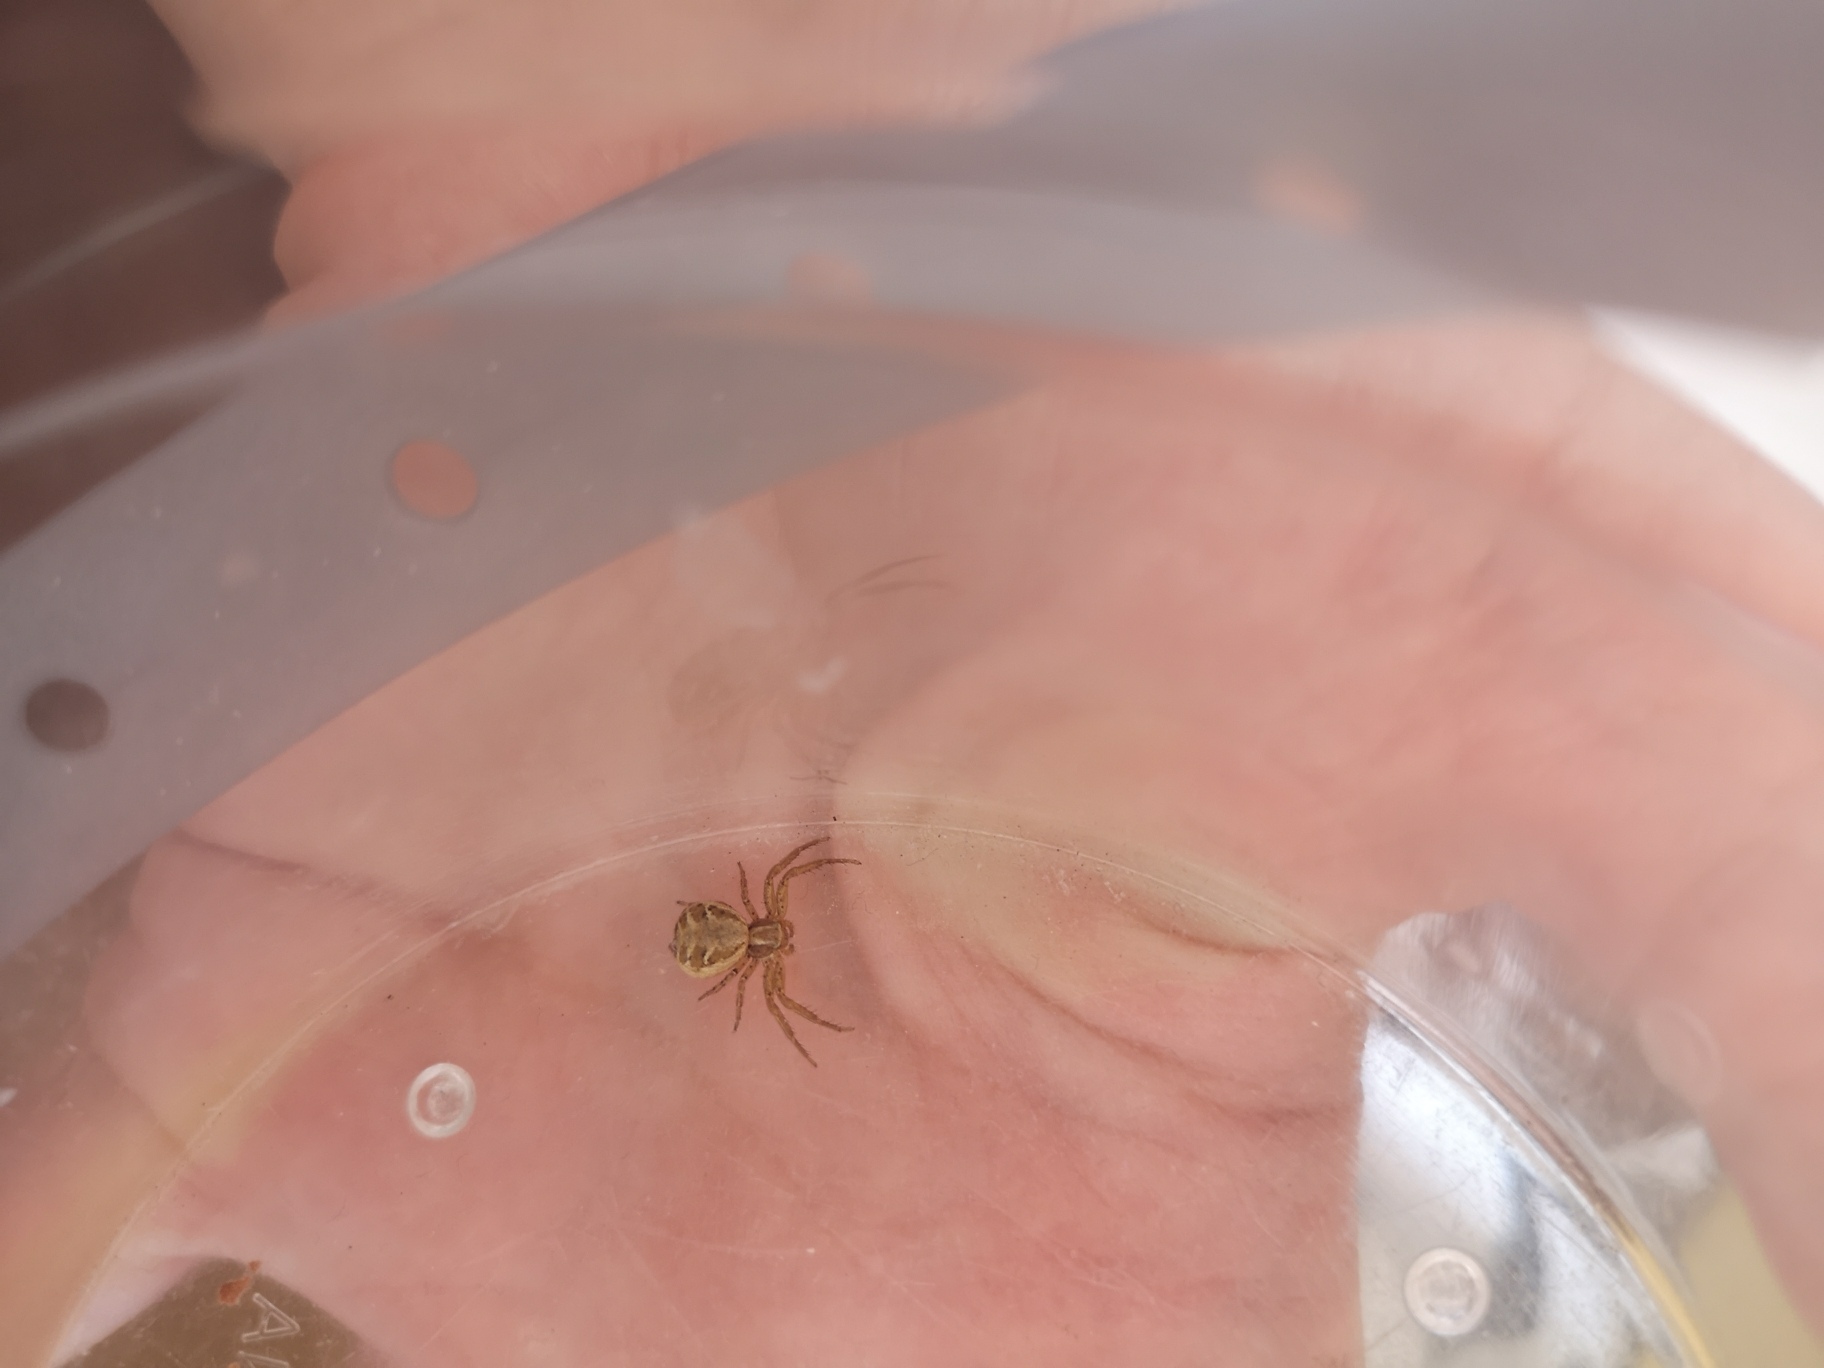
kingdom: Animalia
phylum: Arthropoda
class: Arachnida
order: Araneae
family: Thomisidae
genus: Xysticus
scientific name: Xysticus cristatus
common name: Almindelig krabbeedderkop
